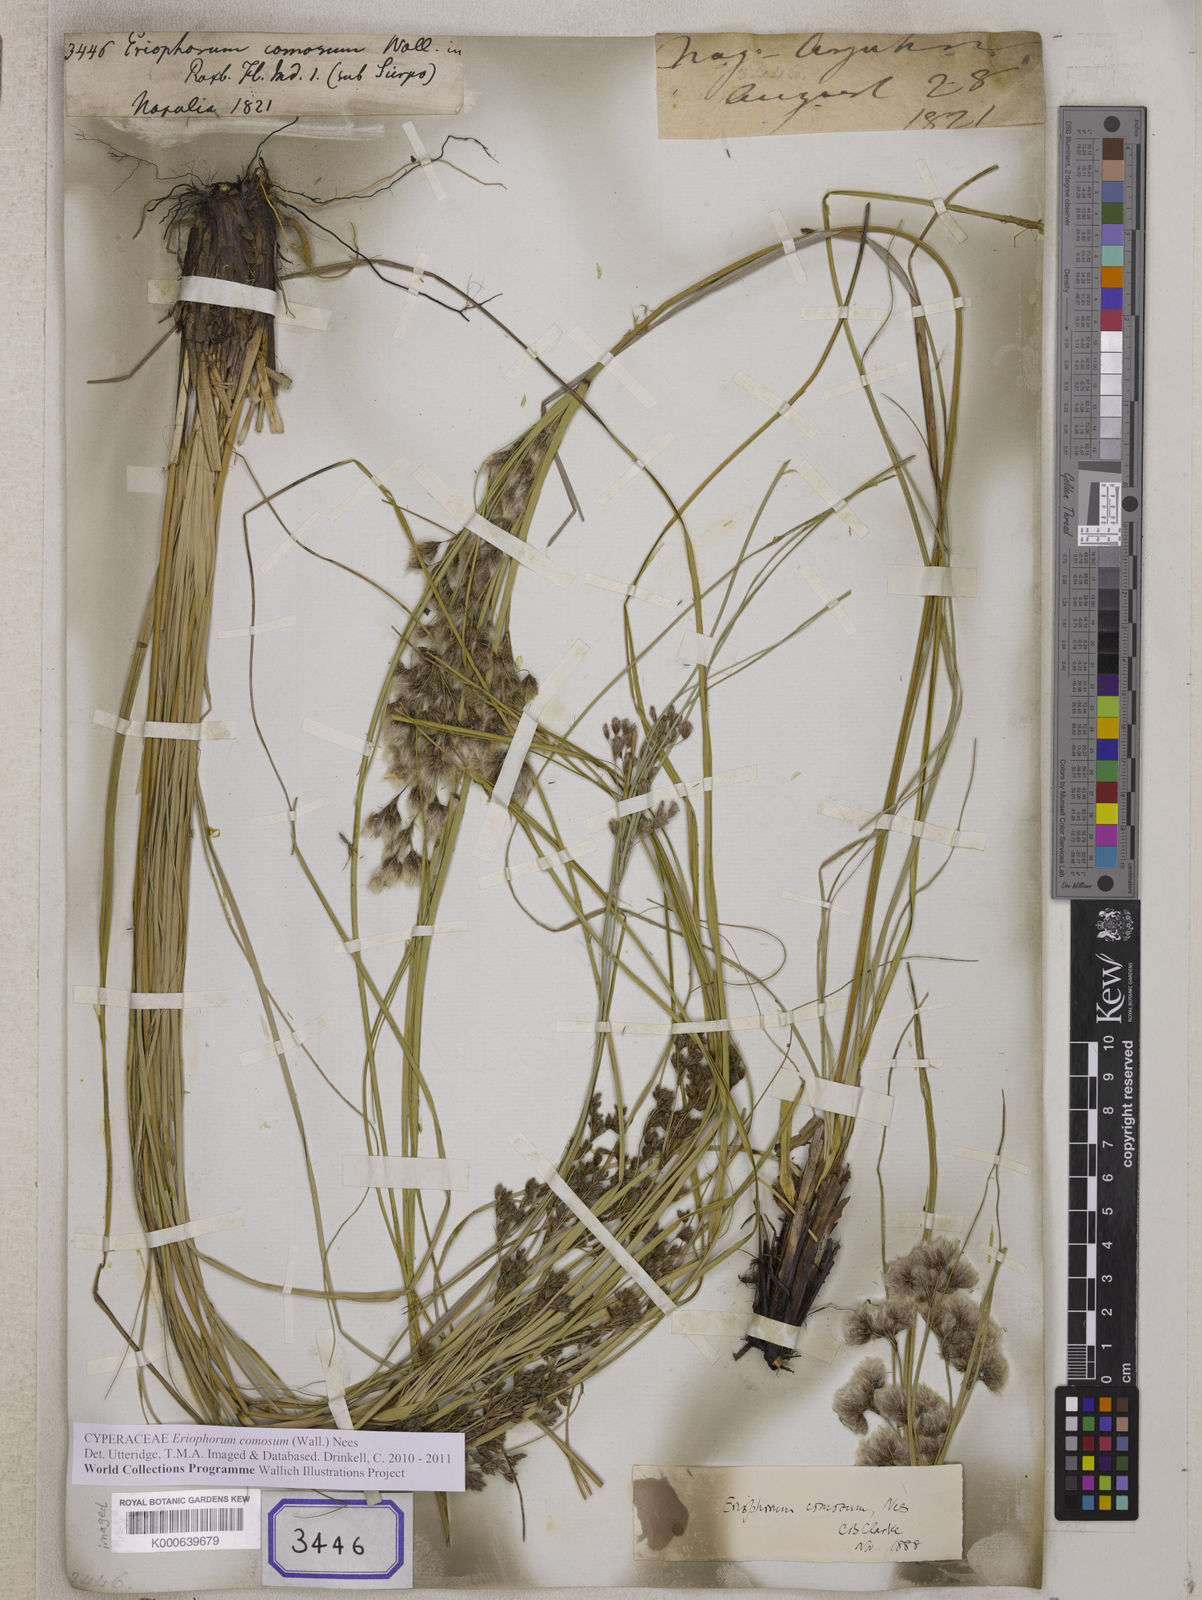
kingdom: Plantae
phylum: Tracheophyta
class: Liliopsida
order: Poales
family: Cyperaceae
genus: Erioscirpus
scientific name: Erioscirpus comosus
